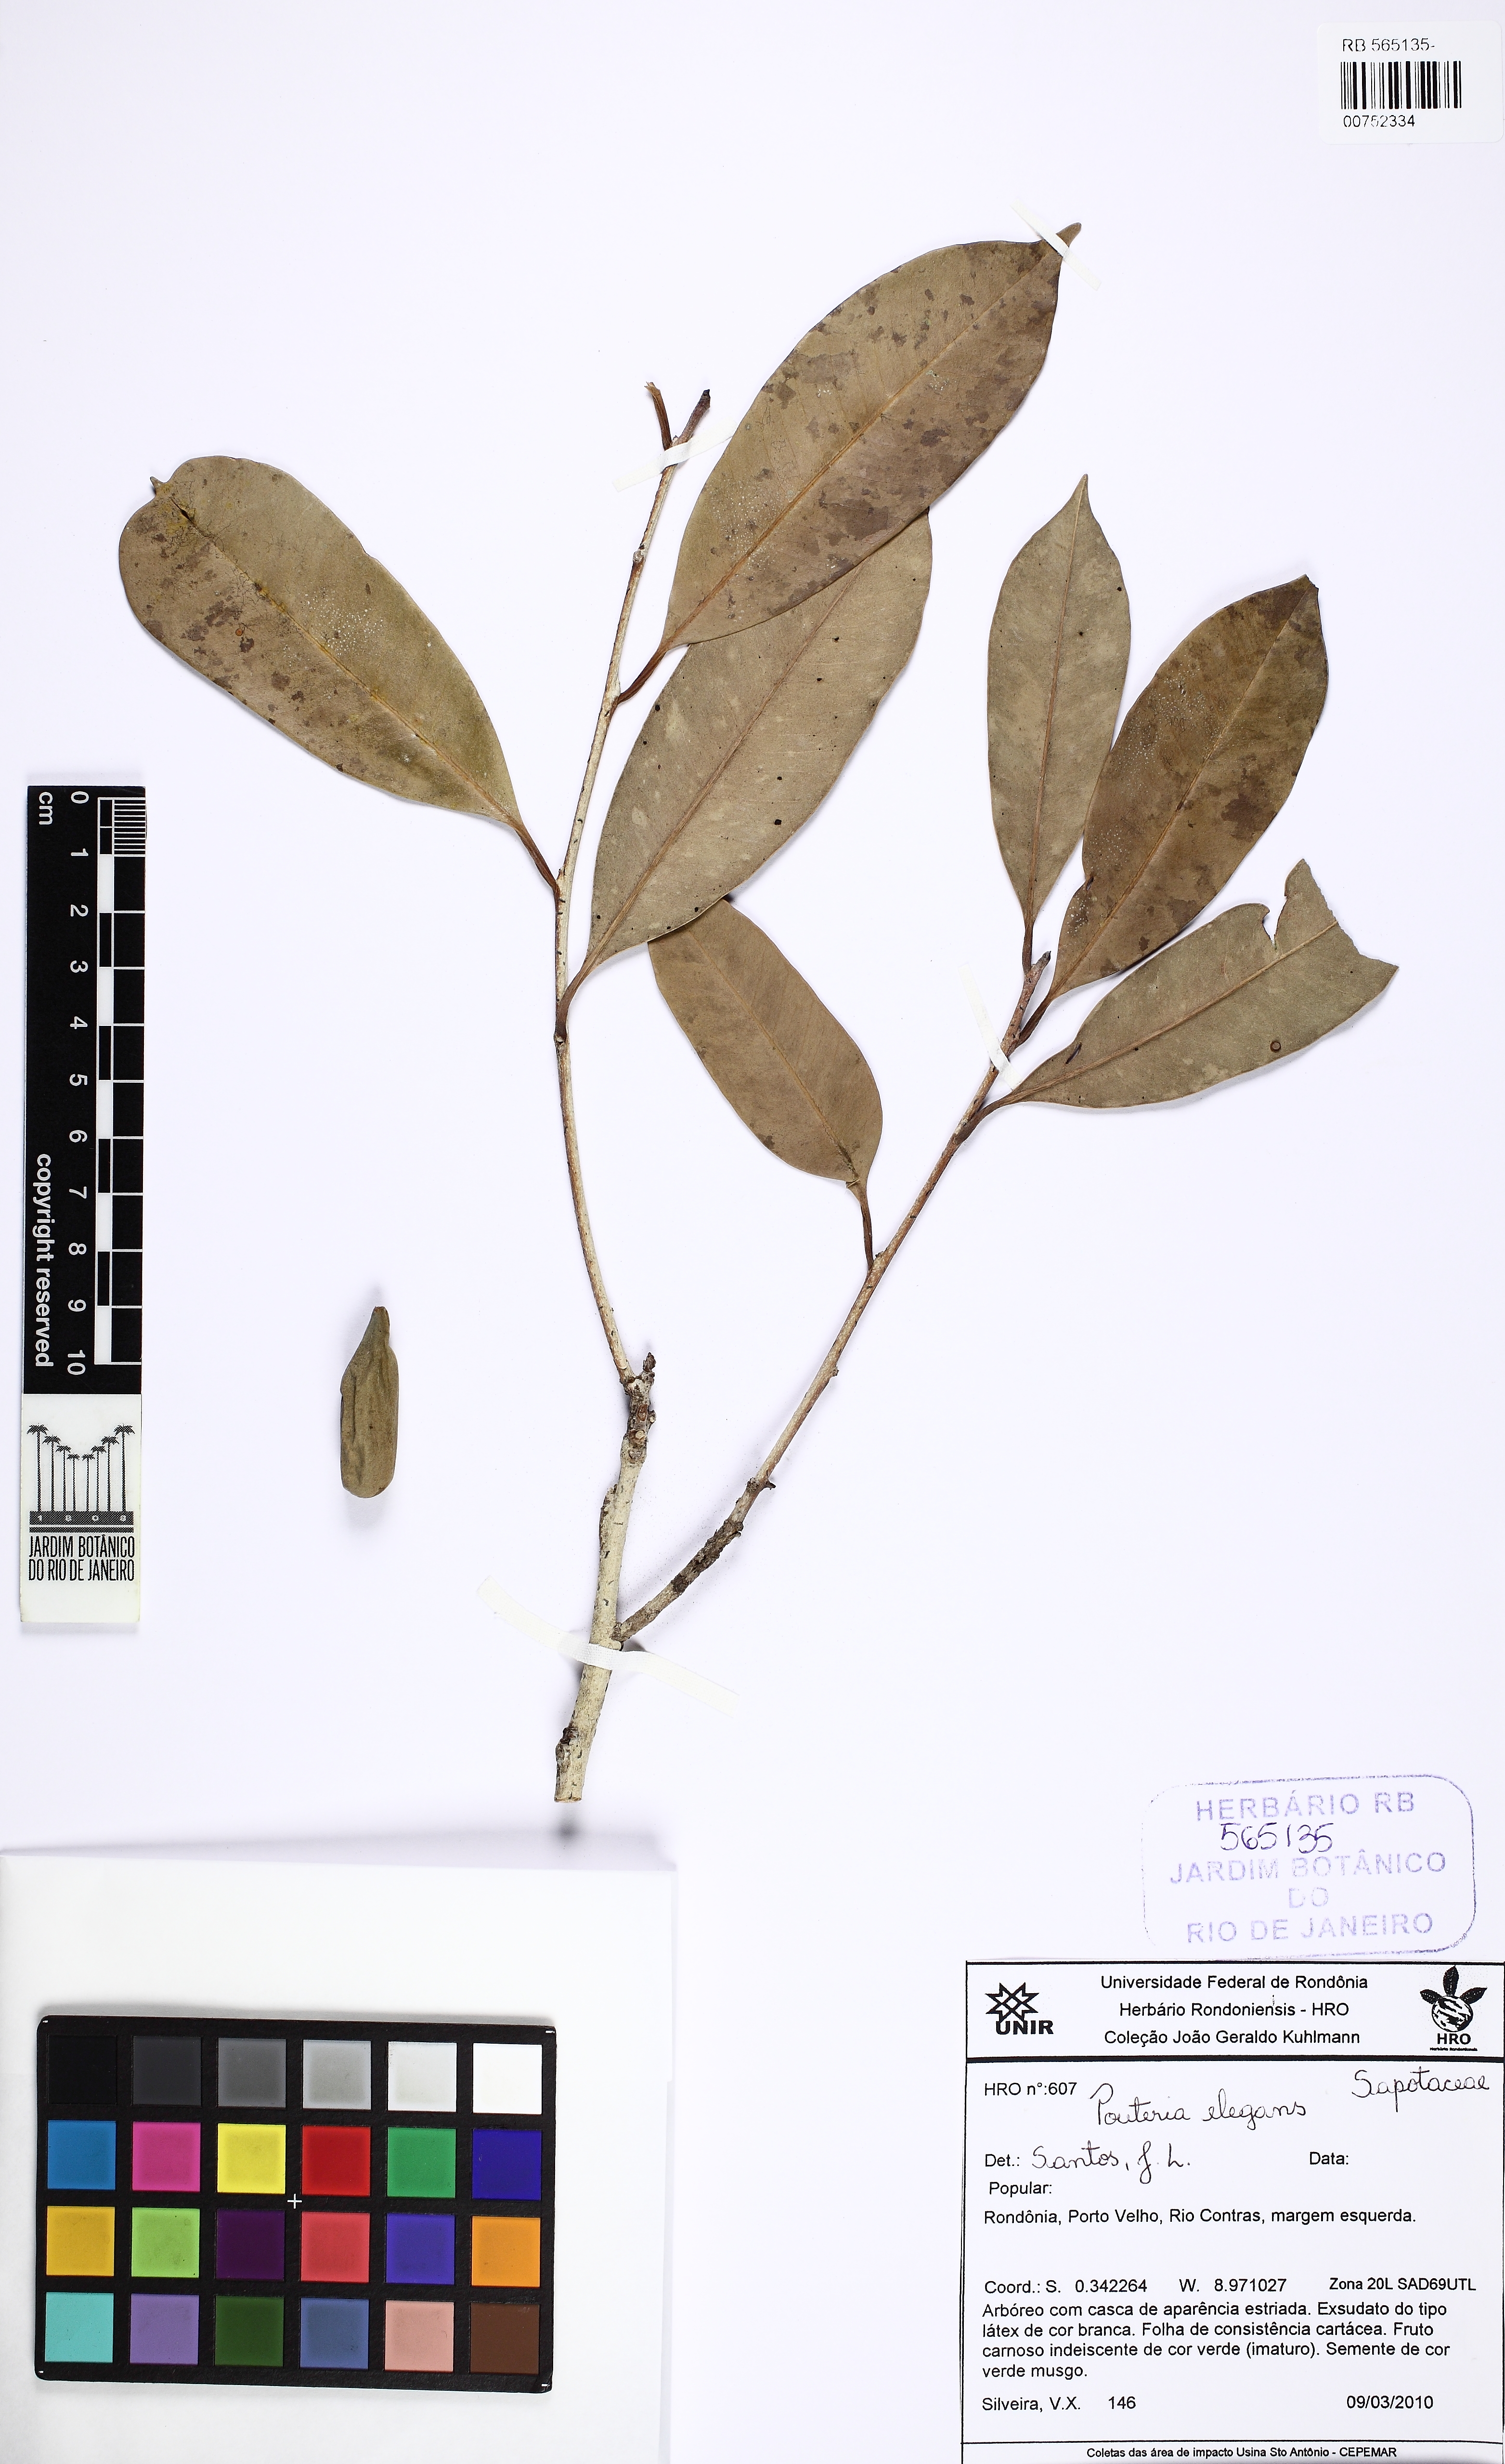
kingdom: Plantae
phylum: Tracheophyta
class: Magnoliopsida
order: Ericales
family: Sapotaceae
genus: Pouteria
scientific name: Pouteria elegans
